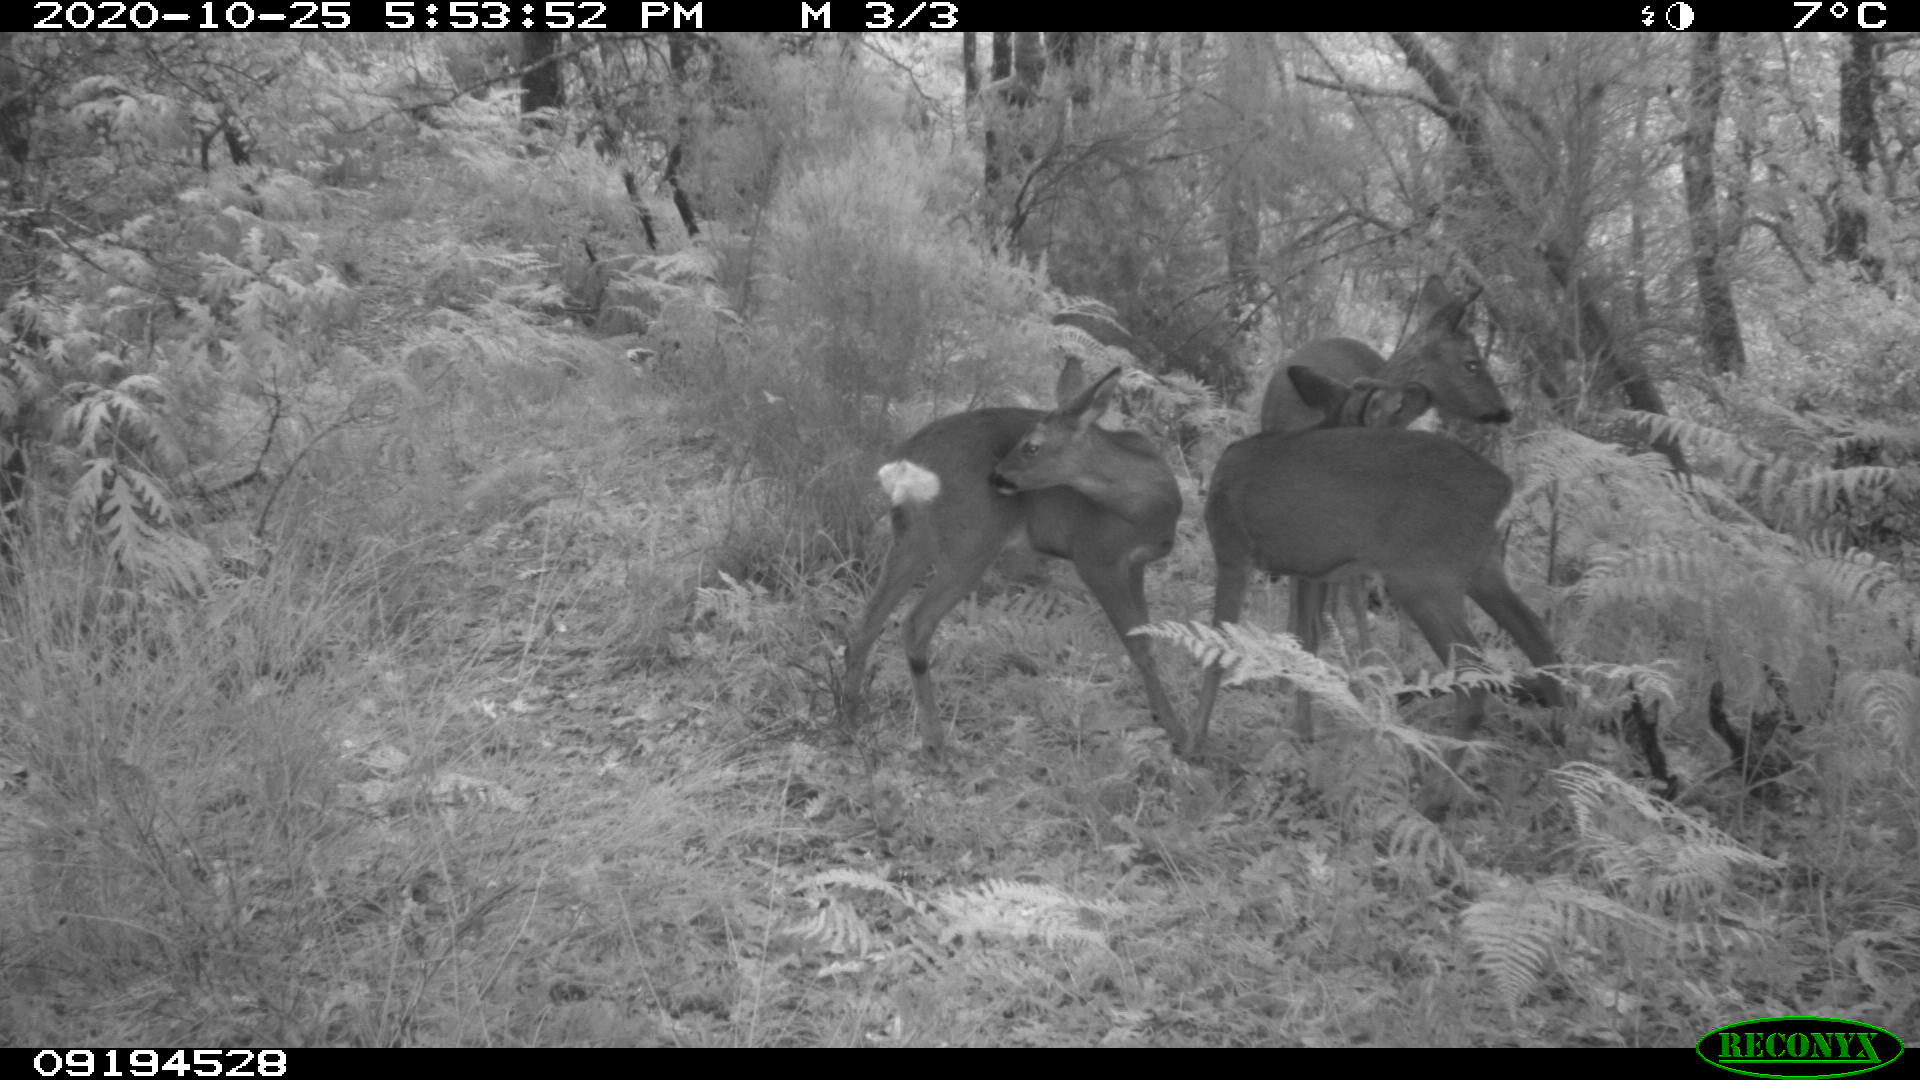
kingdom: Animalia
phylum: Chordata
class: Mammalia
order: Artiodactyla
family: Cervidae
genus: Capreolus
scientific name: Capreolus capreolus
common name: Western roe deer
